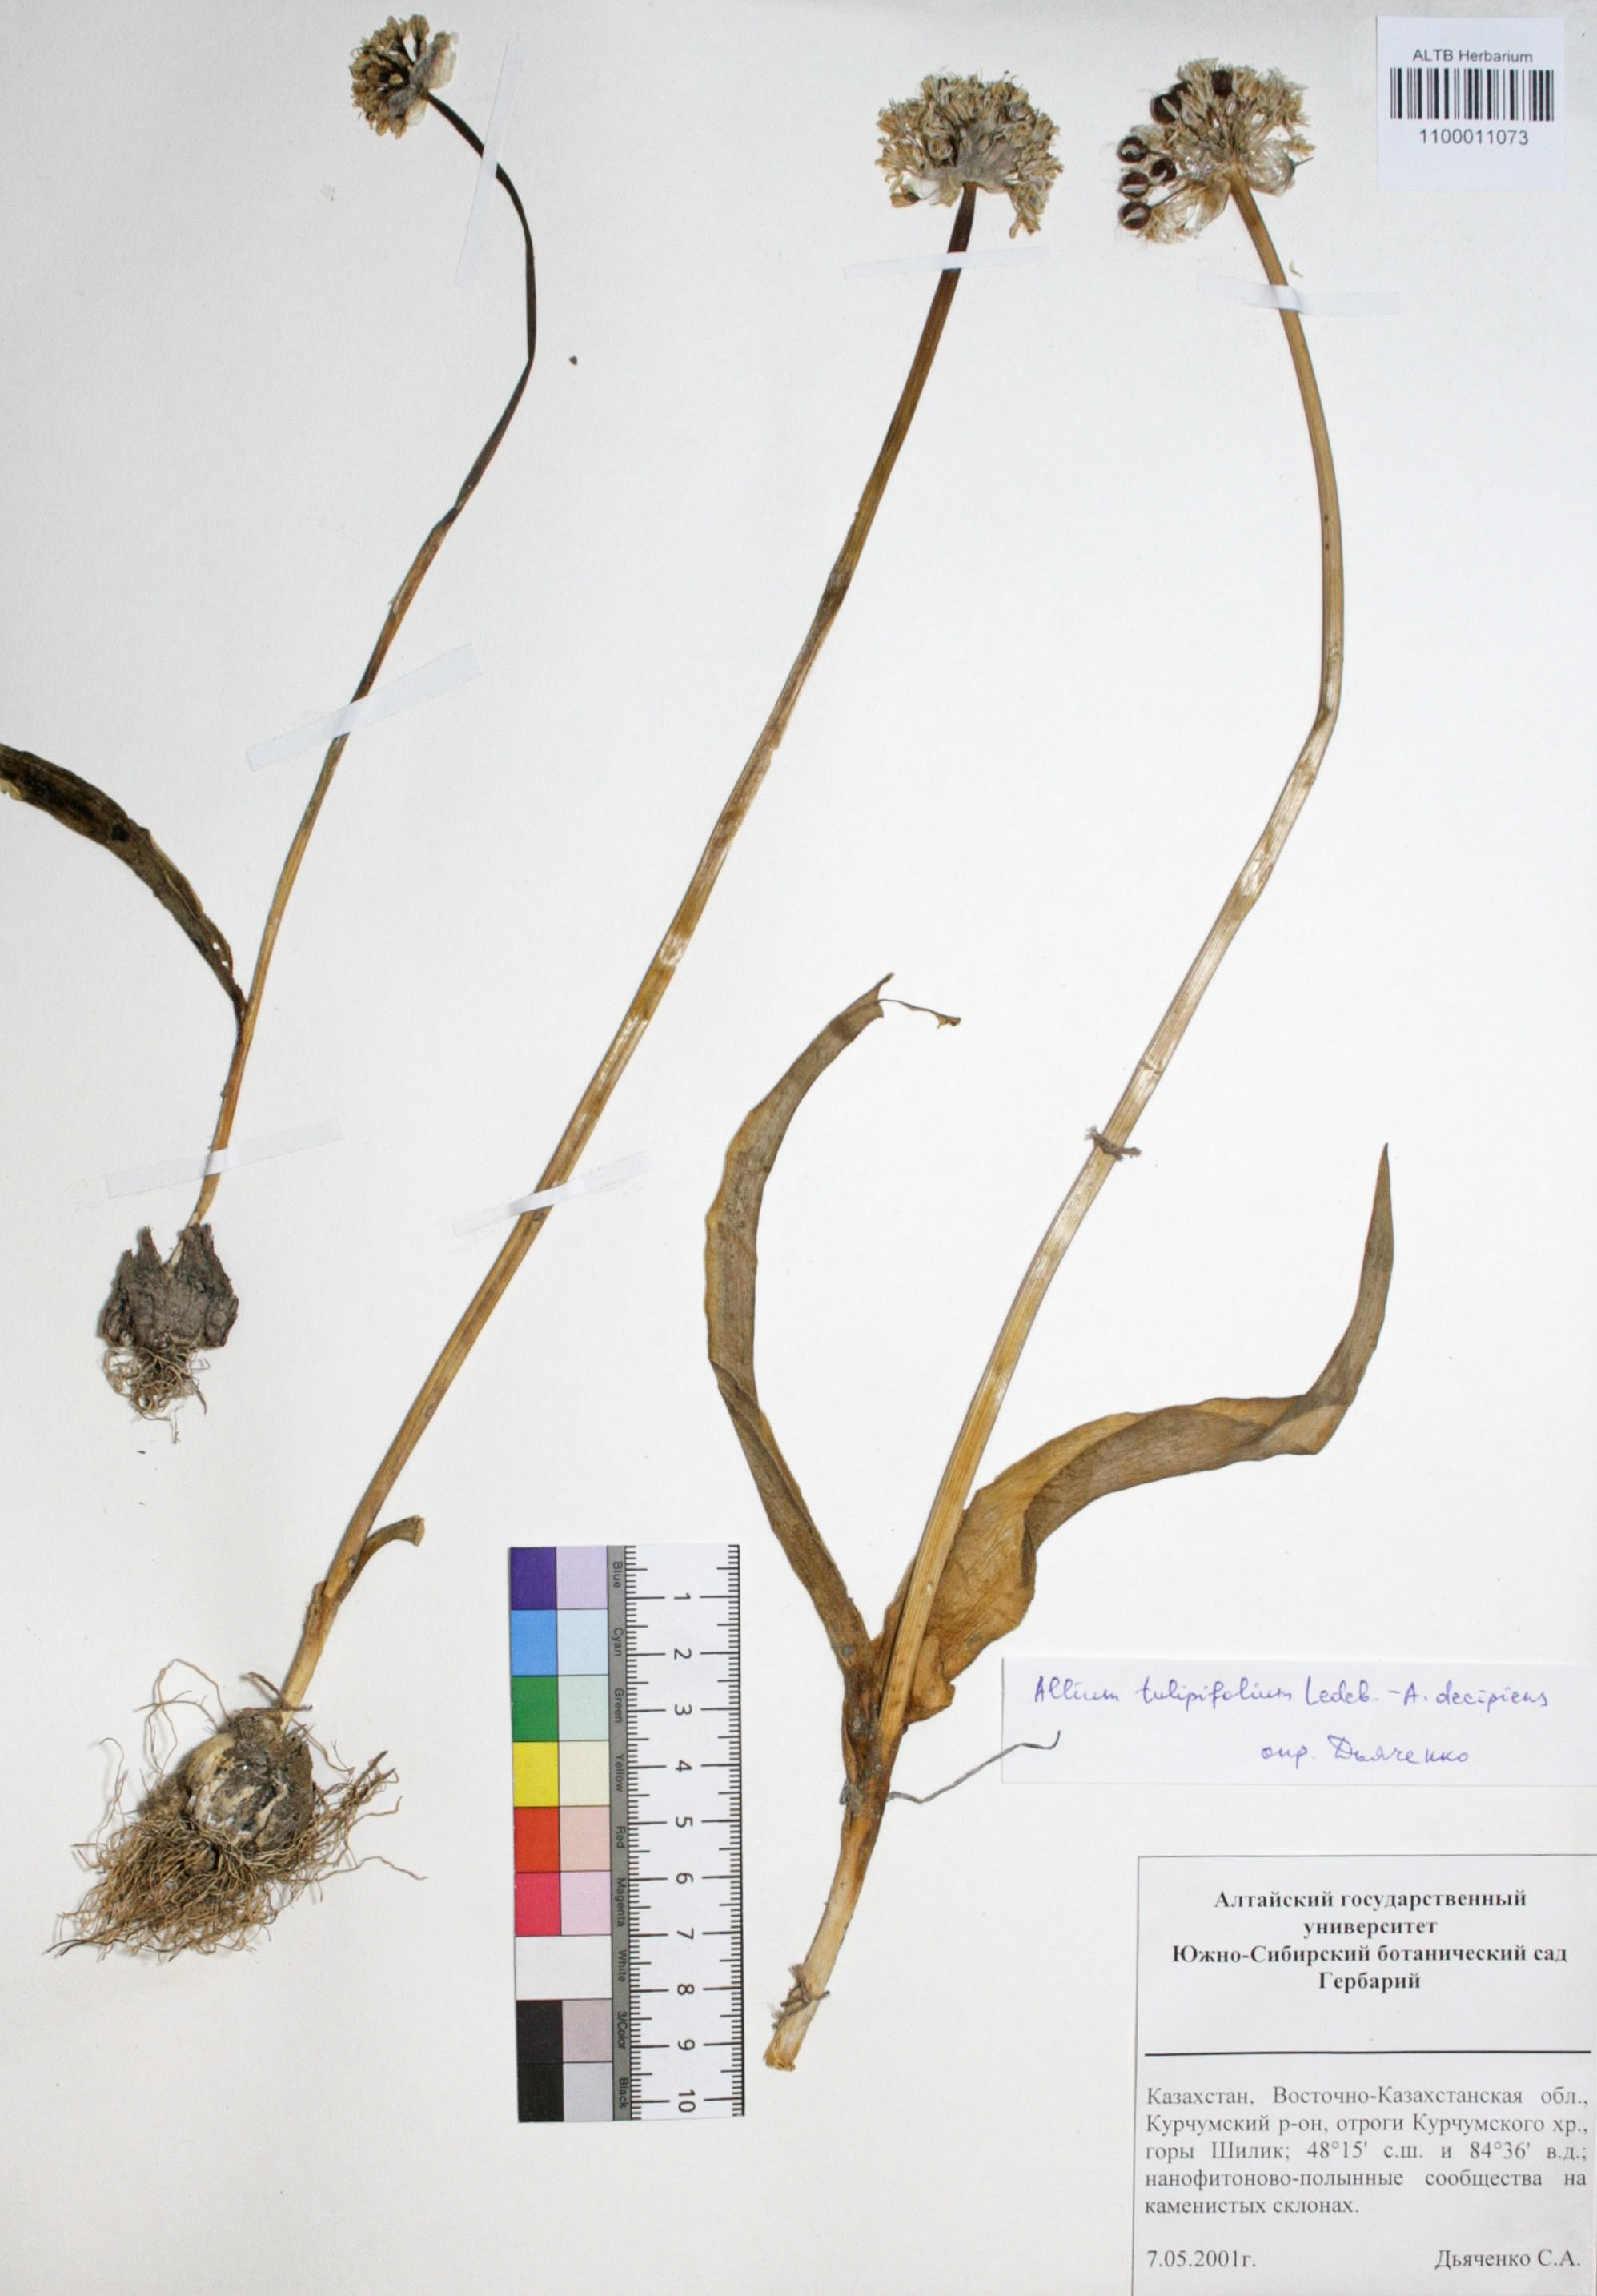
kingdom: Plantae
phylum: Tracheophyta
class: Liliopsida
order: Asparagales
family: Amaryllidaceae
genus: Allium
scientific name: Allium tulipifolium
